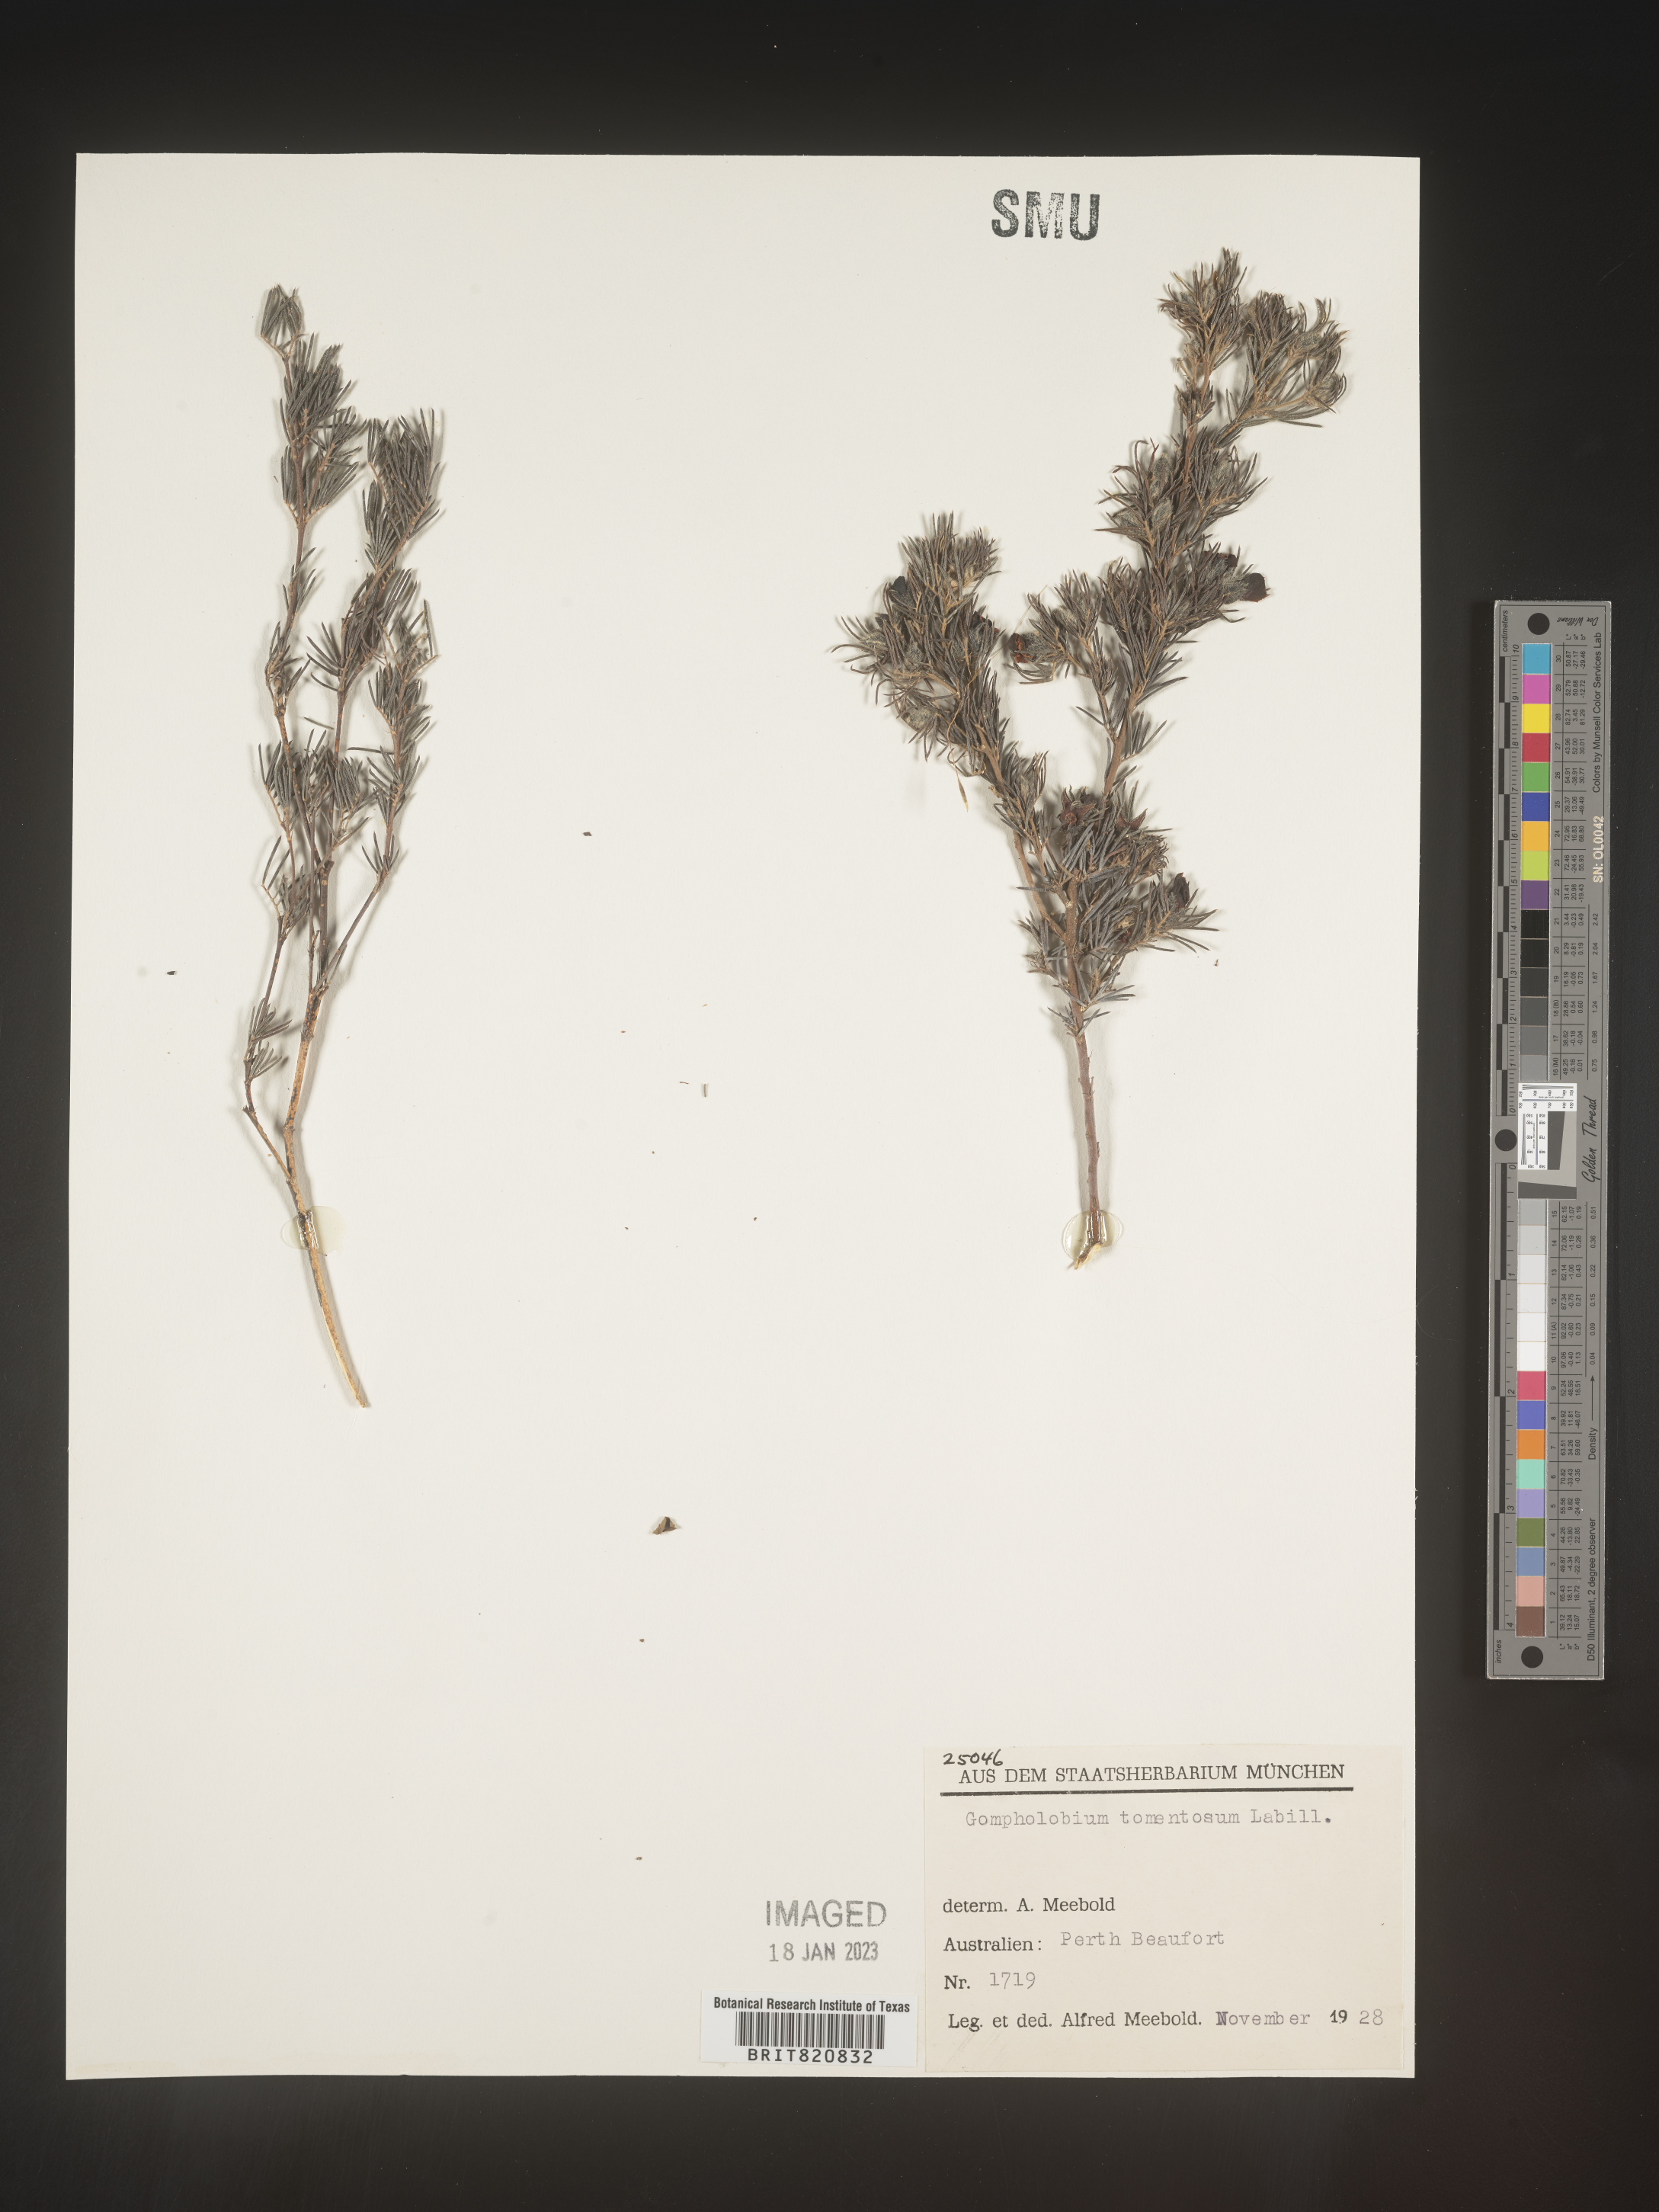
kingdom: Plantae
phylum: Tracheophyta
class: Magnoliopsida
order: Fabales
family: Fabaceae
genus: Gompholobium
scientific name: Gompholobium
